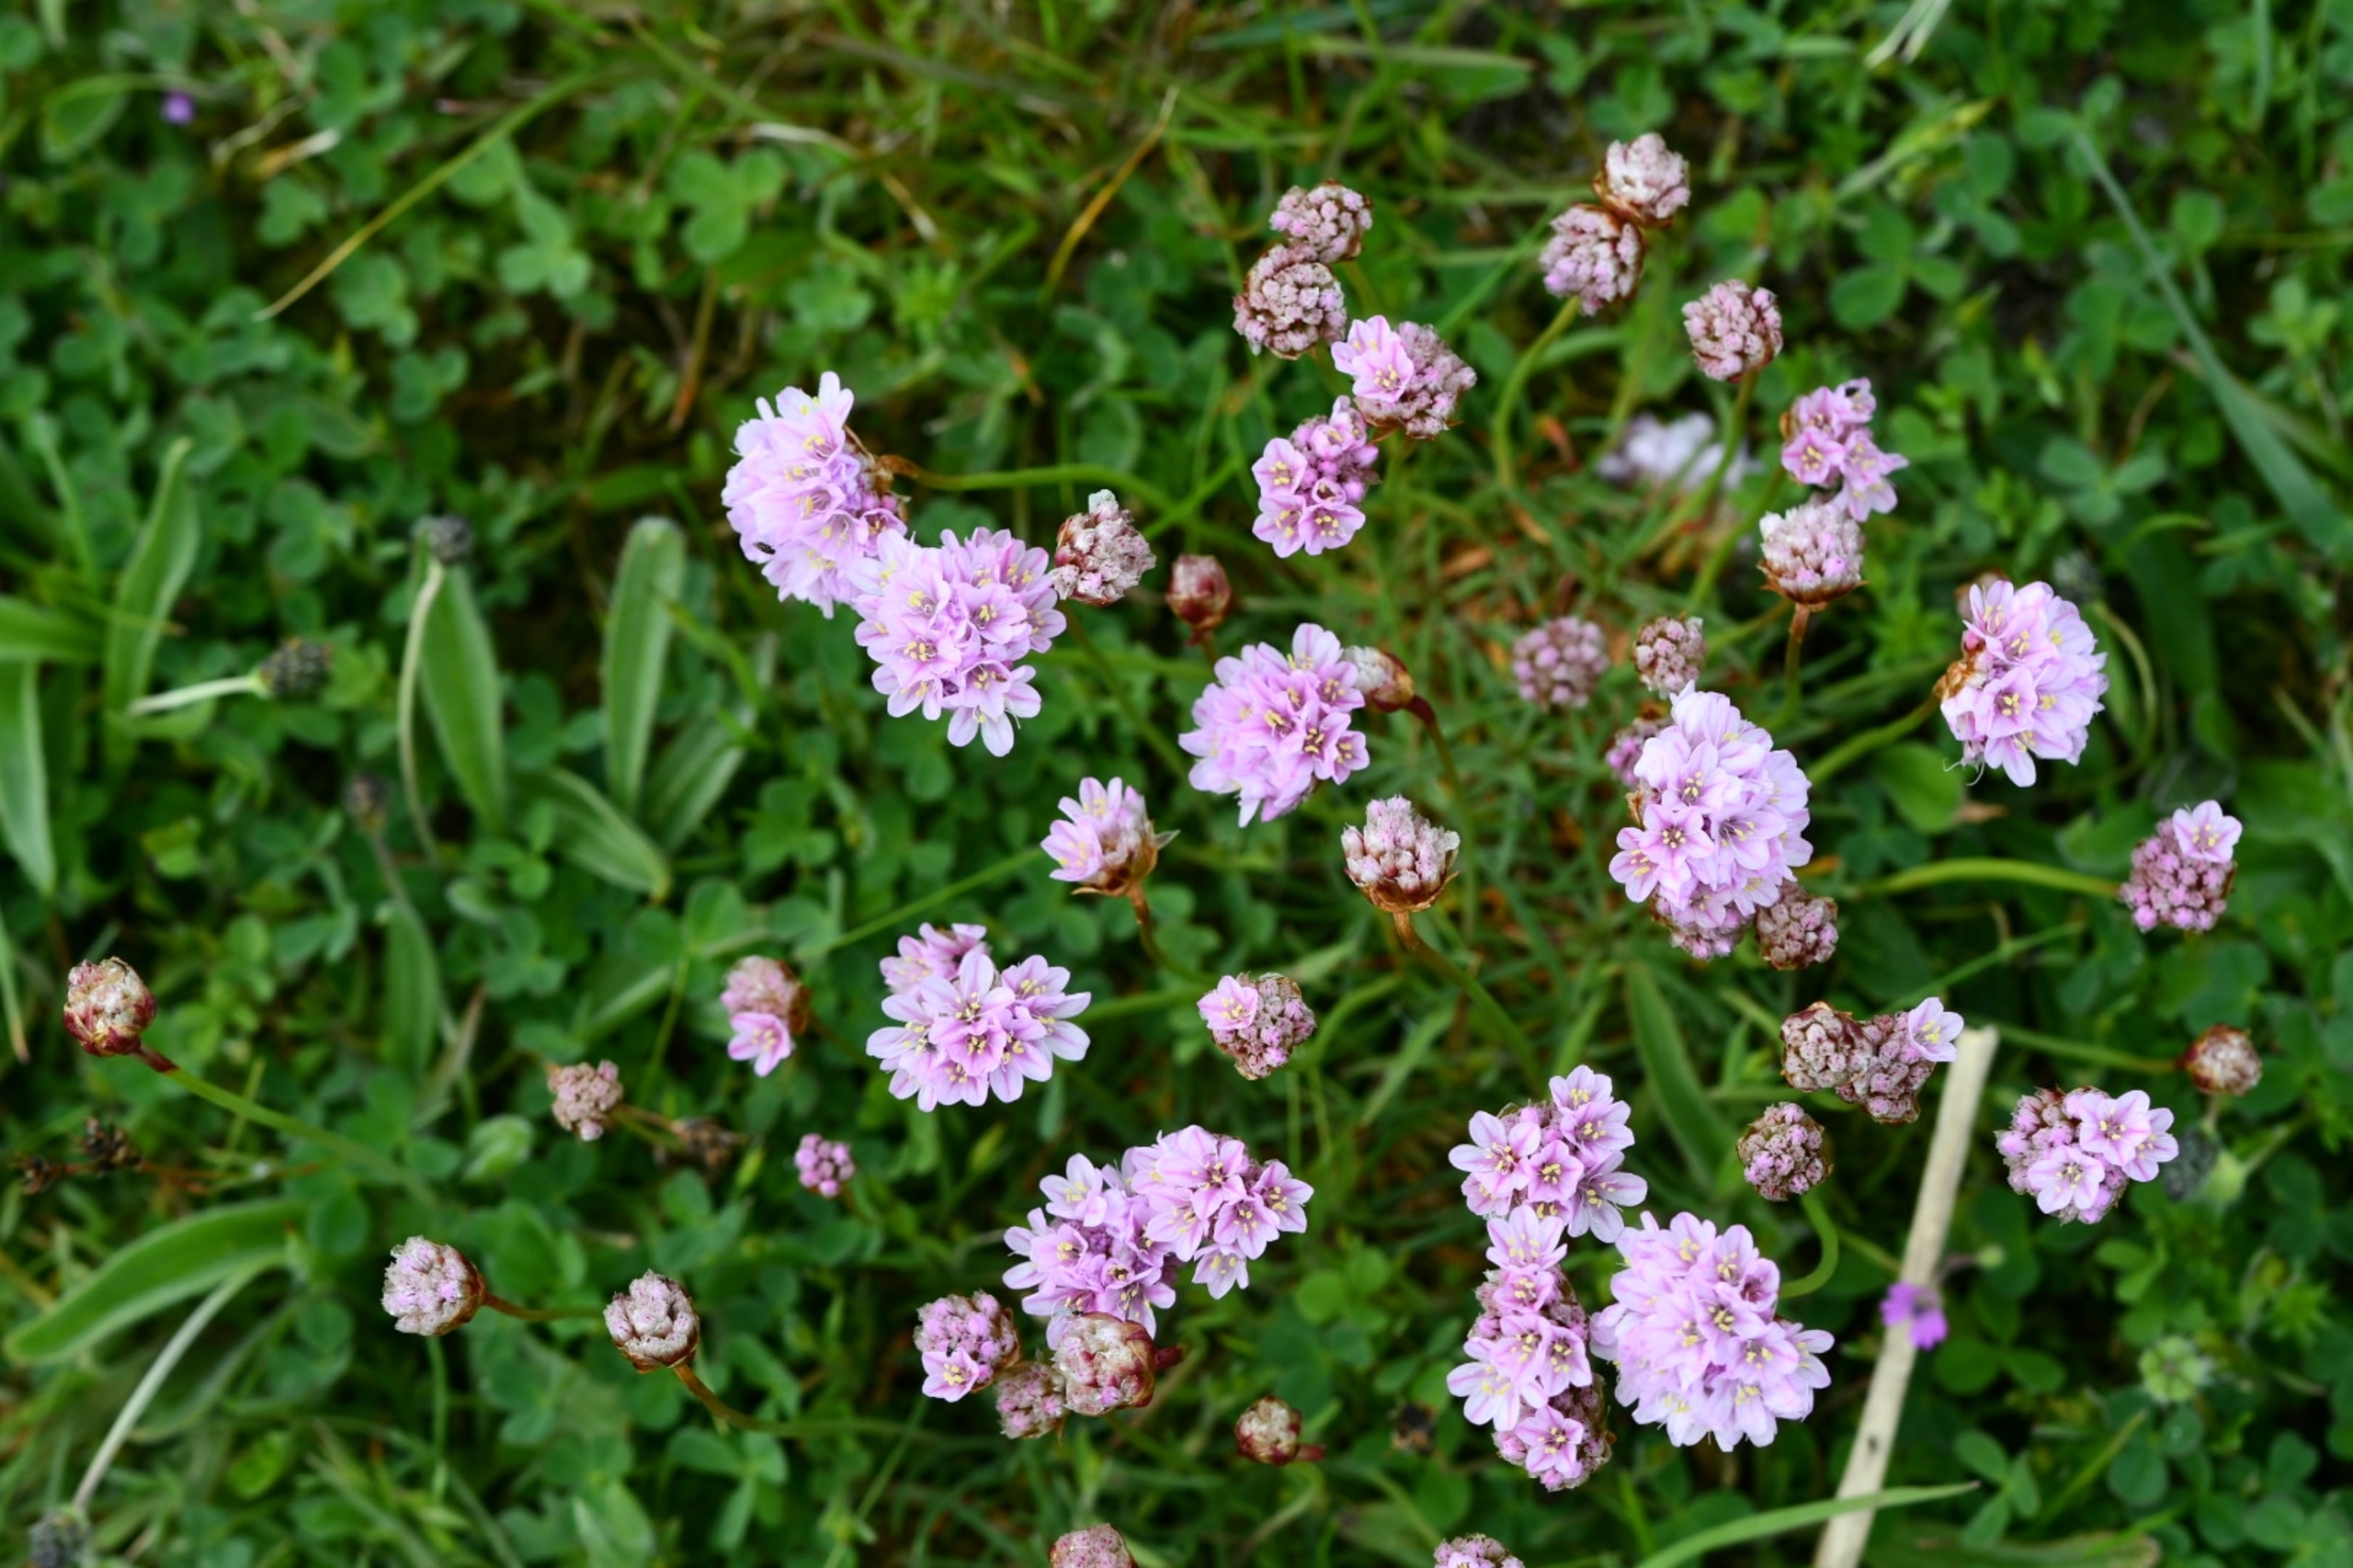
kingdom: Plantae
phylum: Tracheophyta
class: Magnoliopsida
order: Caryophyllales
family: Plumbaginaceae
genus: Armeria
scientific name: Armeria maritima
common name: Engelskgræs
